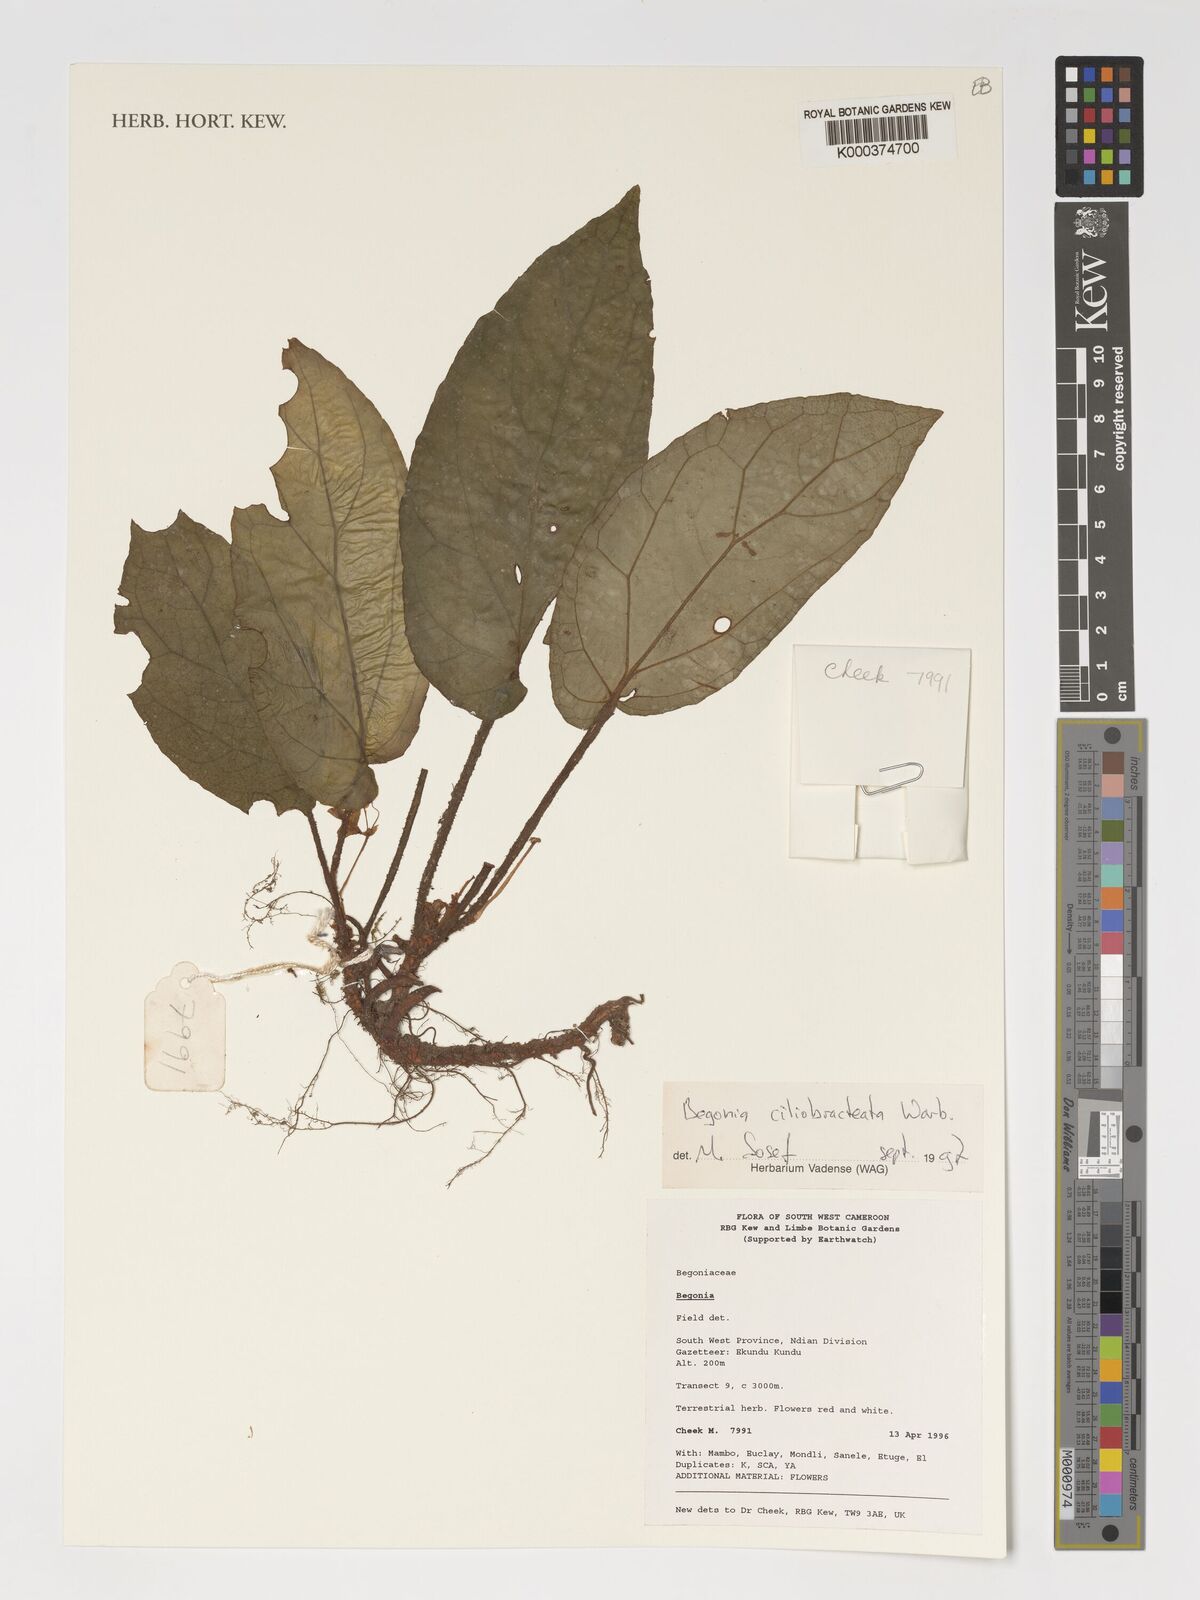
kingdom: Plantae
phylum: Tracheophyta
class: Magnoliopsida
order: Cucurbitales
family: Begoniaceae
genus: Begonia
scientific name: Begonia ciliobracteata
